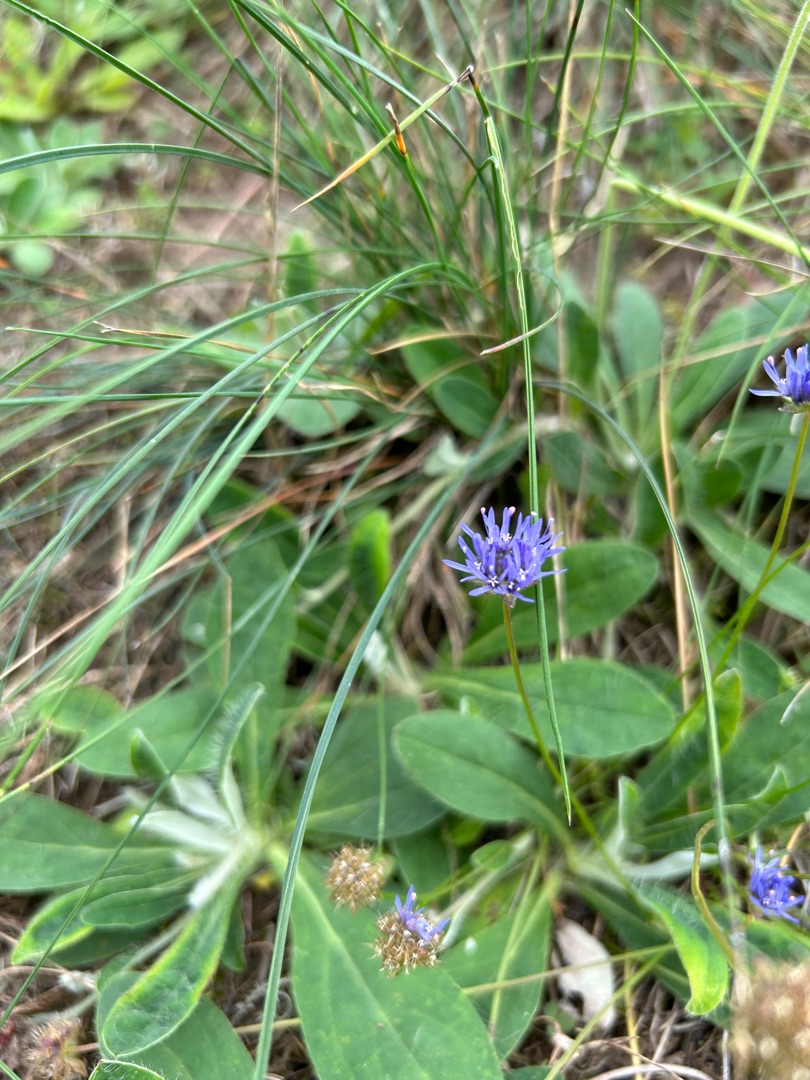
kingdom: Plantae
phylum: Tracheophyta
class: Magnoliopsida
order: Asterales
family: Campanulaceae
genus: Jasione
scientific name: Jasione montana
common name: Blåmunke
